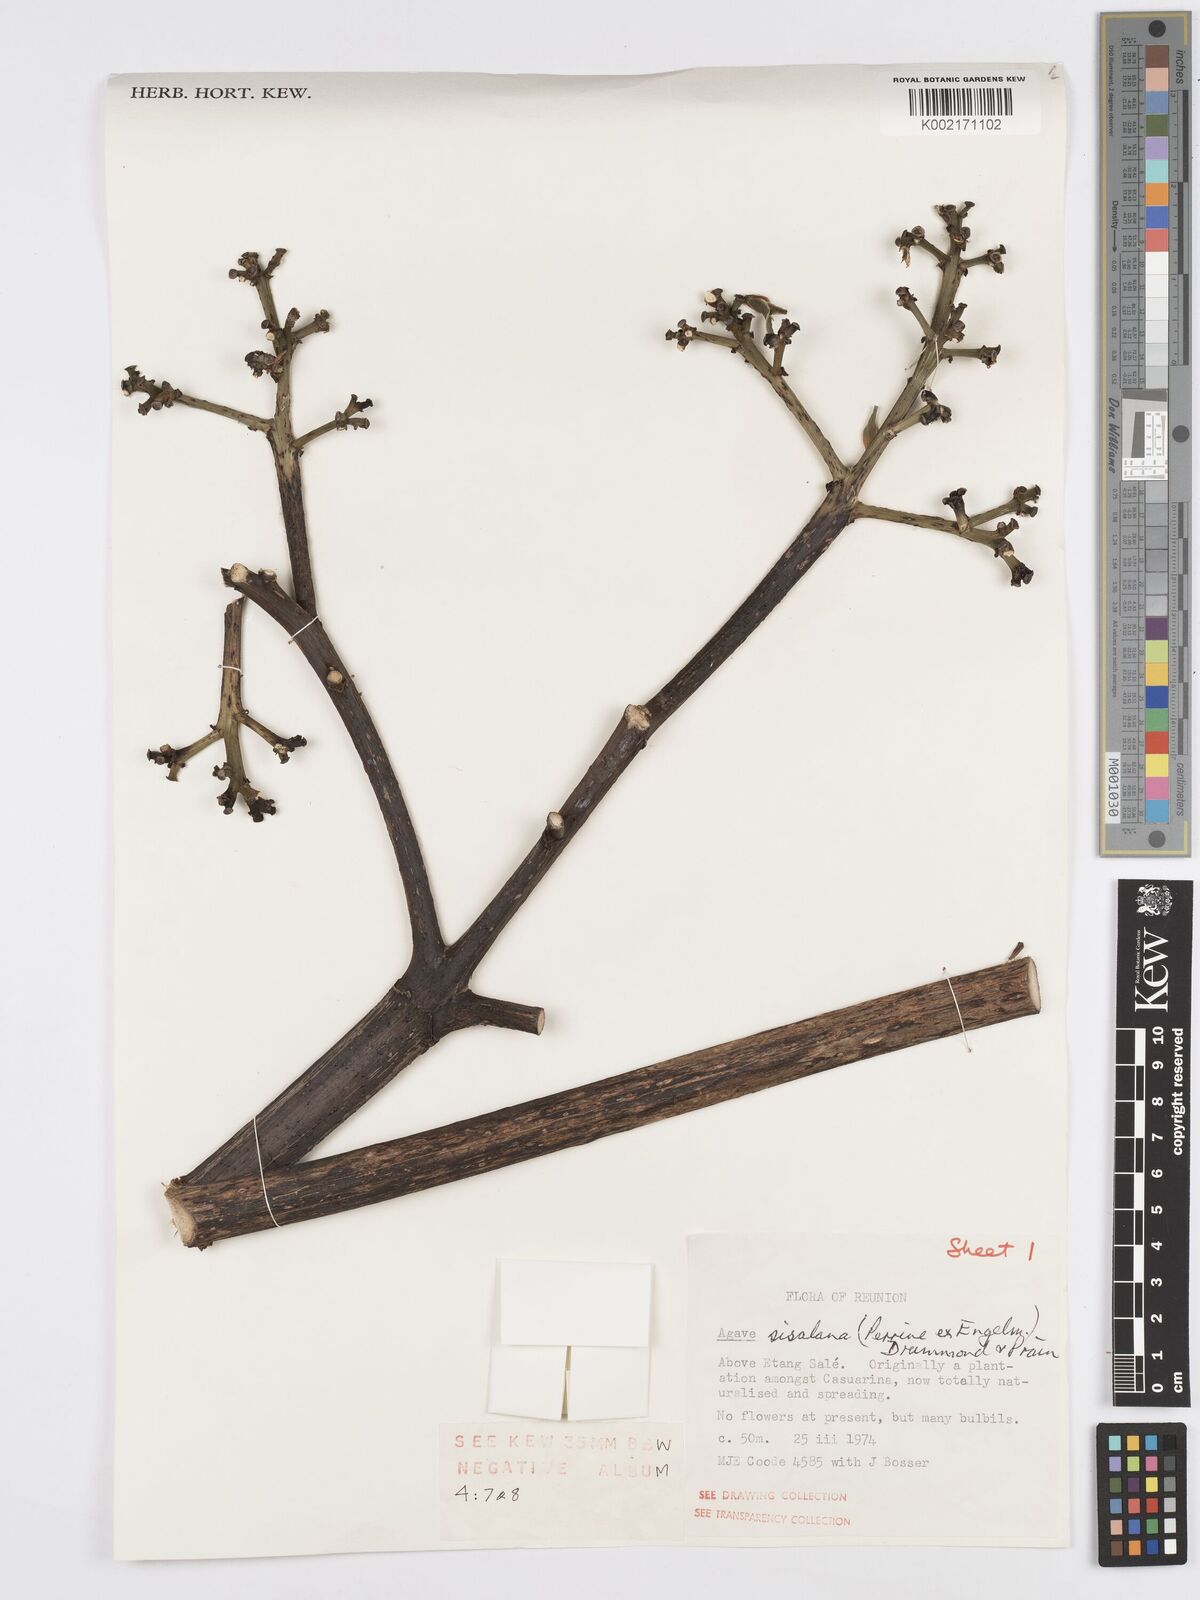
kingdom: Plantae
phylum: Tracheophyta
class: Liliopsida
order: Asparagales
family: Asparagaceae
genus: Agave
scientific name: Agave sisalana
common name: Sisal hemp
